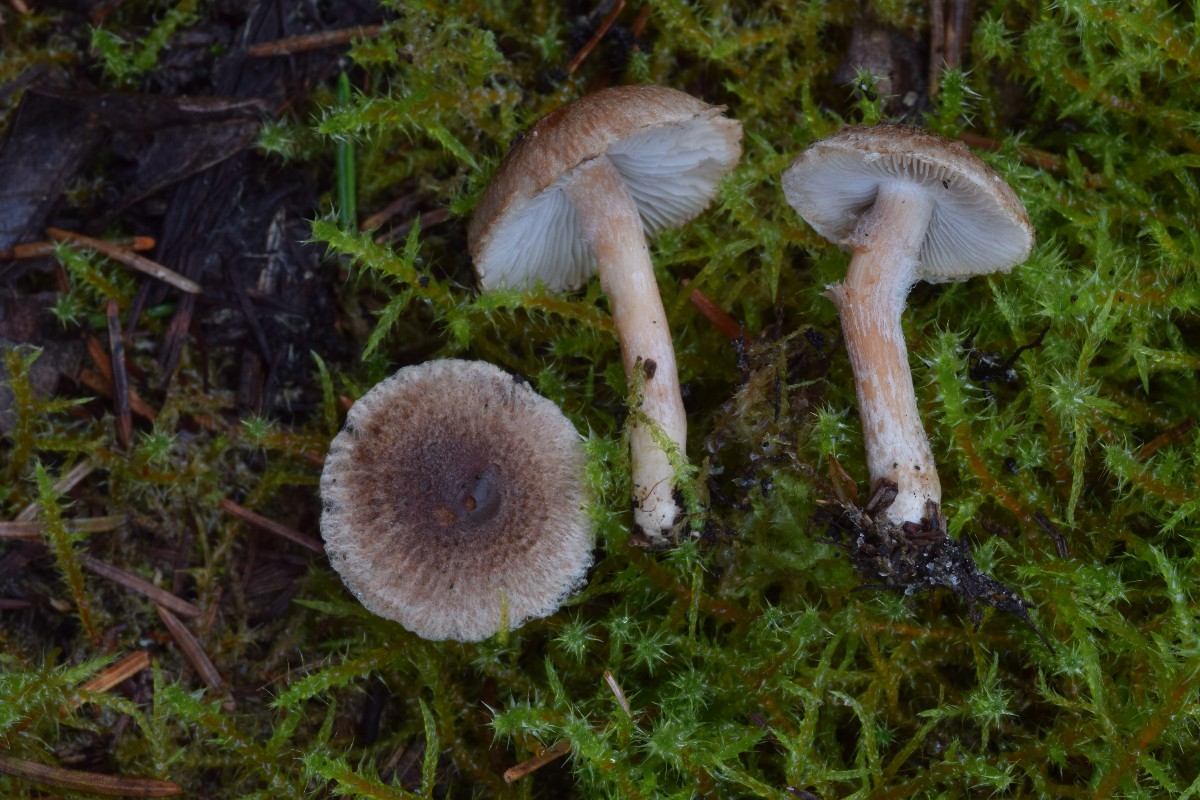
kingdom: Fungi
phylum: Basidiomycota
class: Agaricomycetes
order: Agaricales
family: Inocybaceae
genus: Inocybe
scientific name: Inocybe
